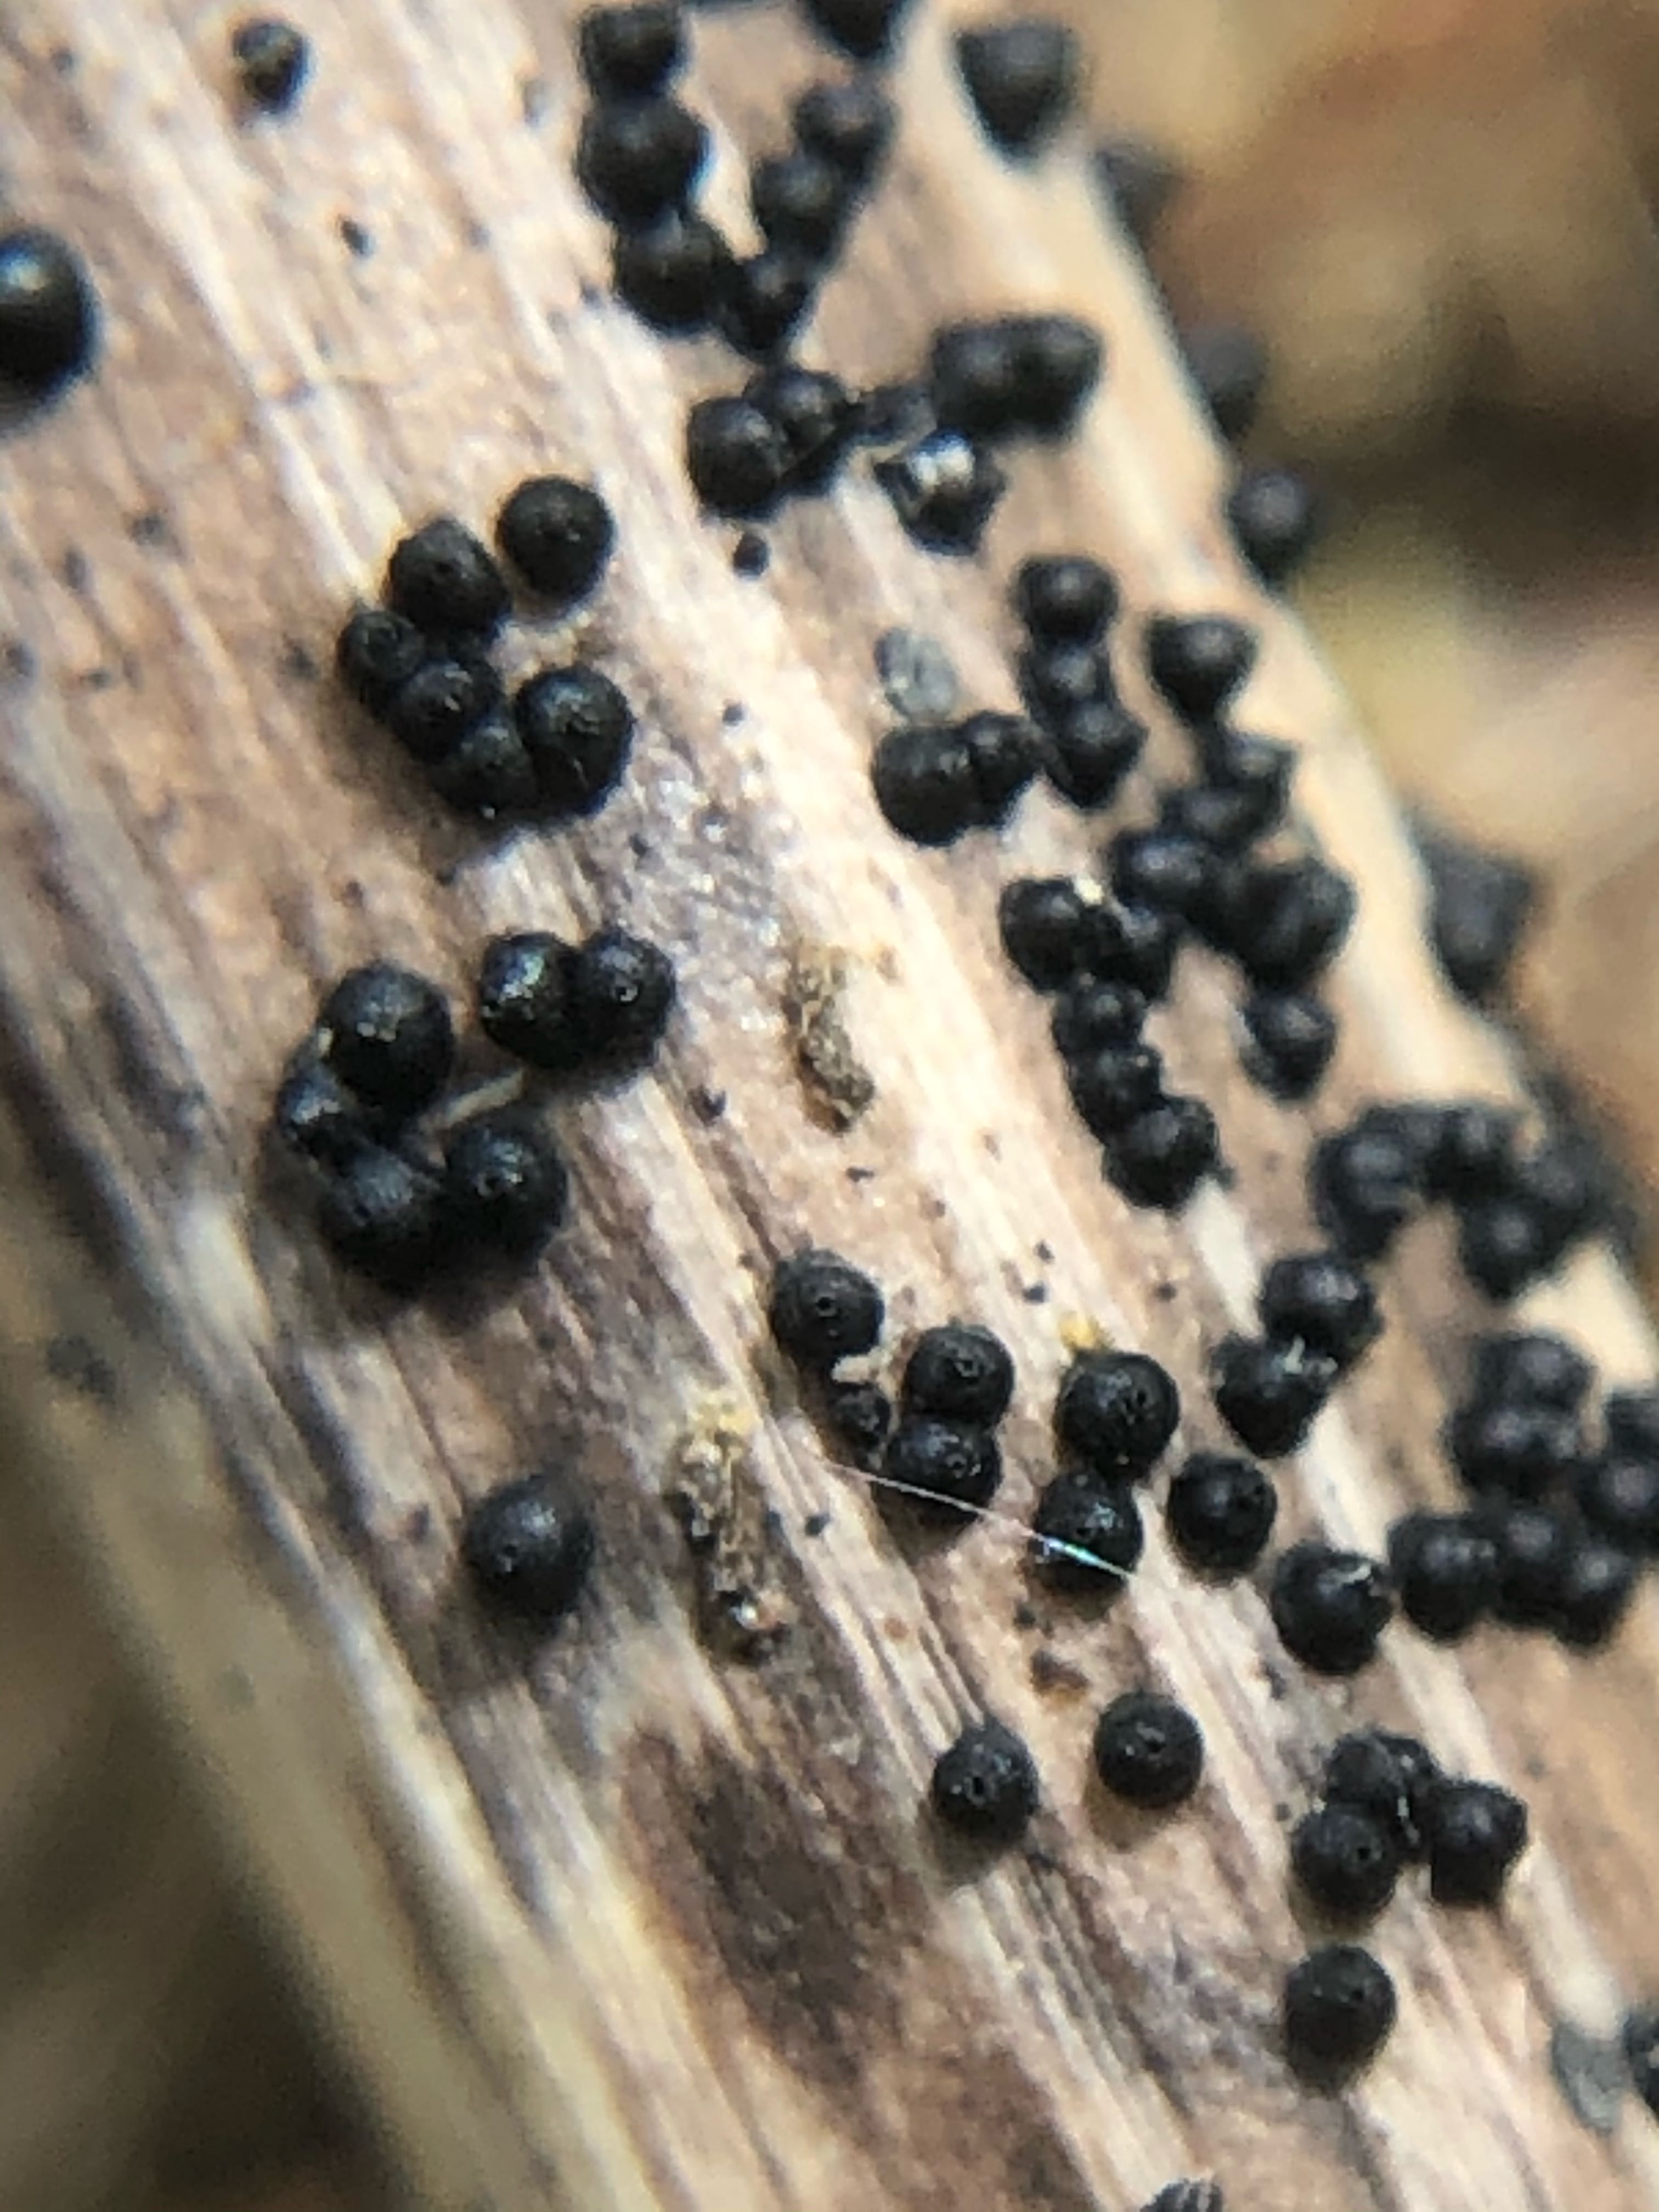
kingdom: Fungi
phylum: Ascomycota
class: Dothideomycetes
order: Pleosporales
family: Leptosphaeriaceae
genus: Leptosphaeria
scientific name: Leptosphaeria
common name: kulkegle
